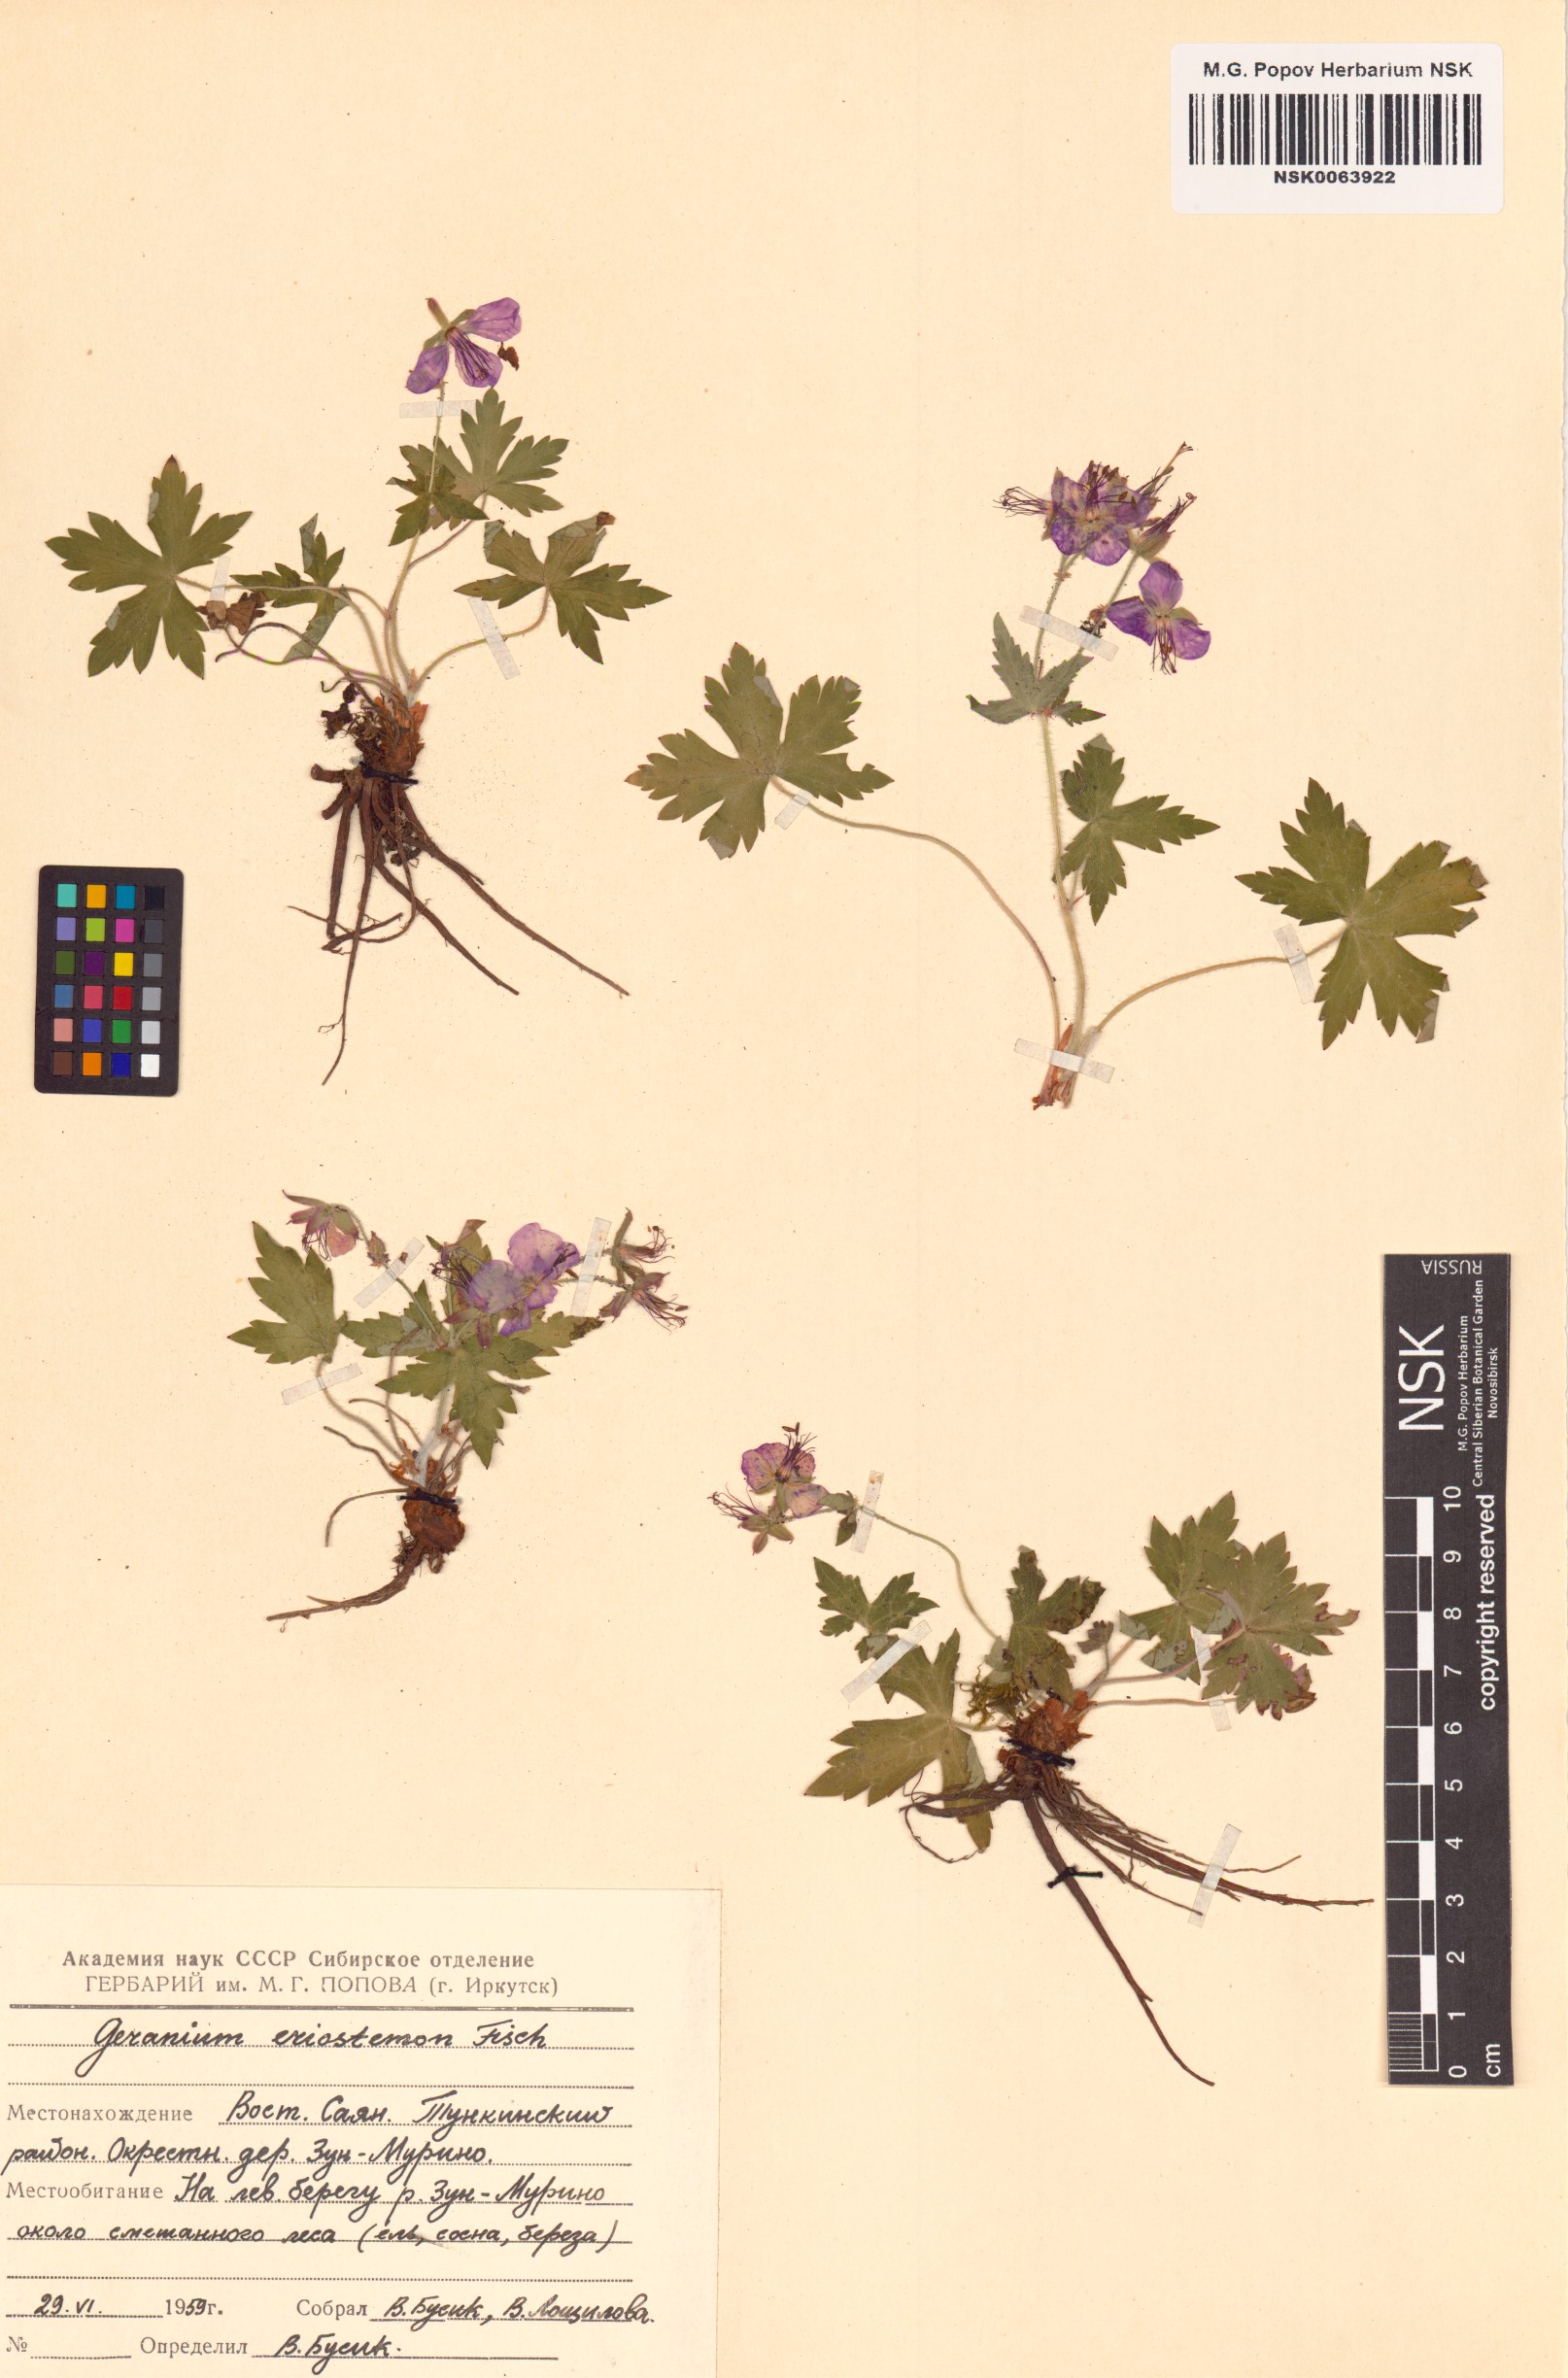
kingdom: Plantae
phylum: Tracheophyta
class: Magnoliopsida
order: Geraniales
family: Geraniaceae
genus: Geranium
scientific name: Geranium platyanthum
